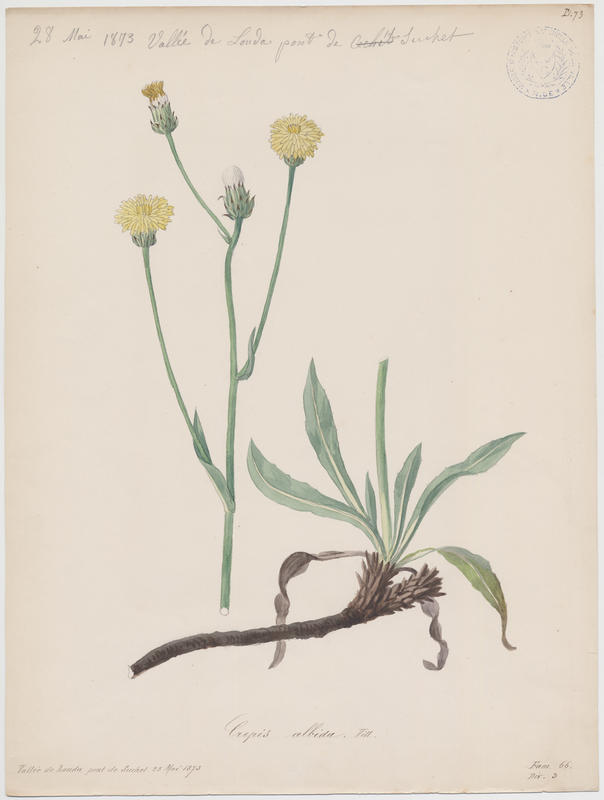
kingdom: Plantae
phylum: Tracheophyta
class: Magnoliopsida
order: Asterales
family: Asteraceae
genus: Crepis
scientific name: Crepis albida
